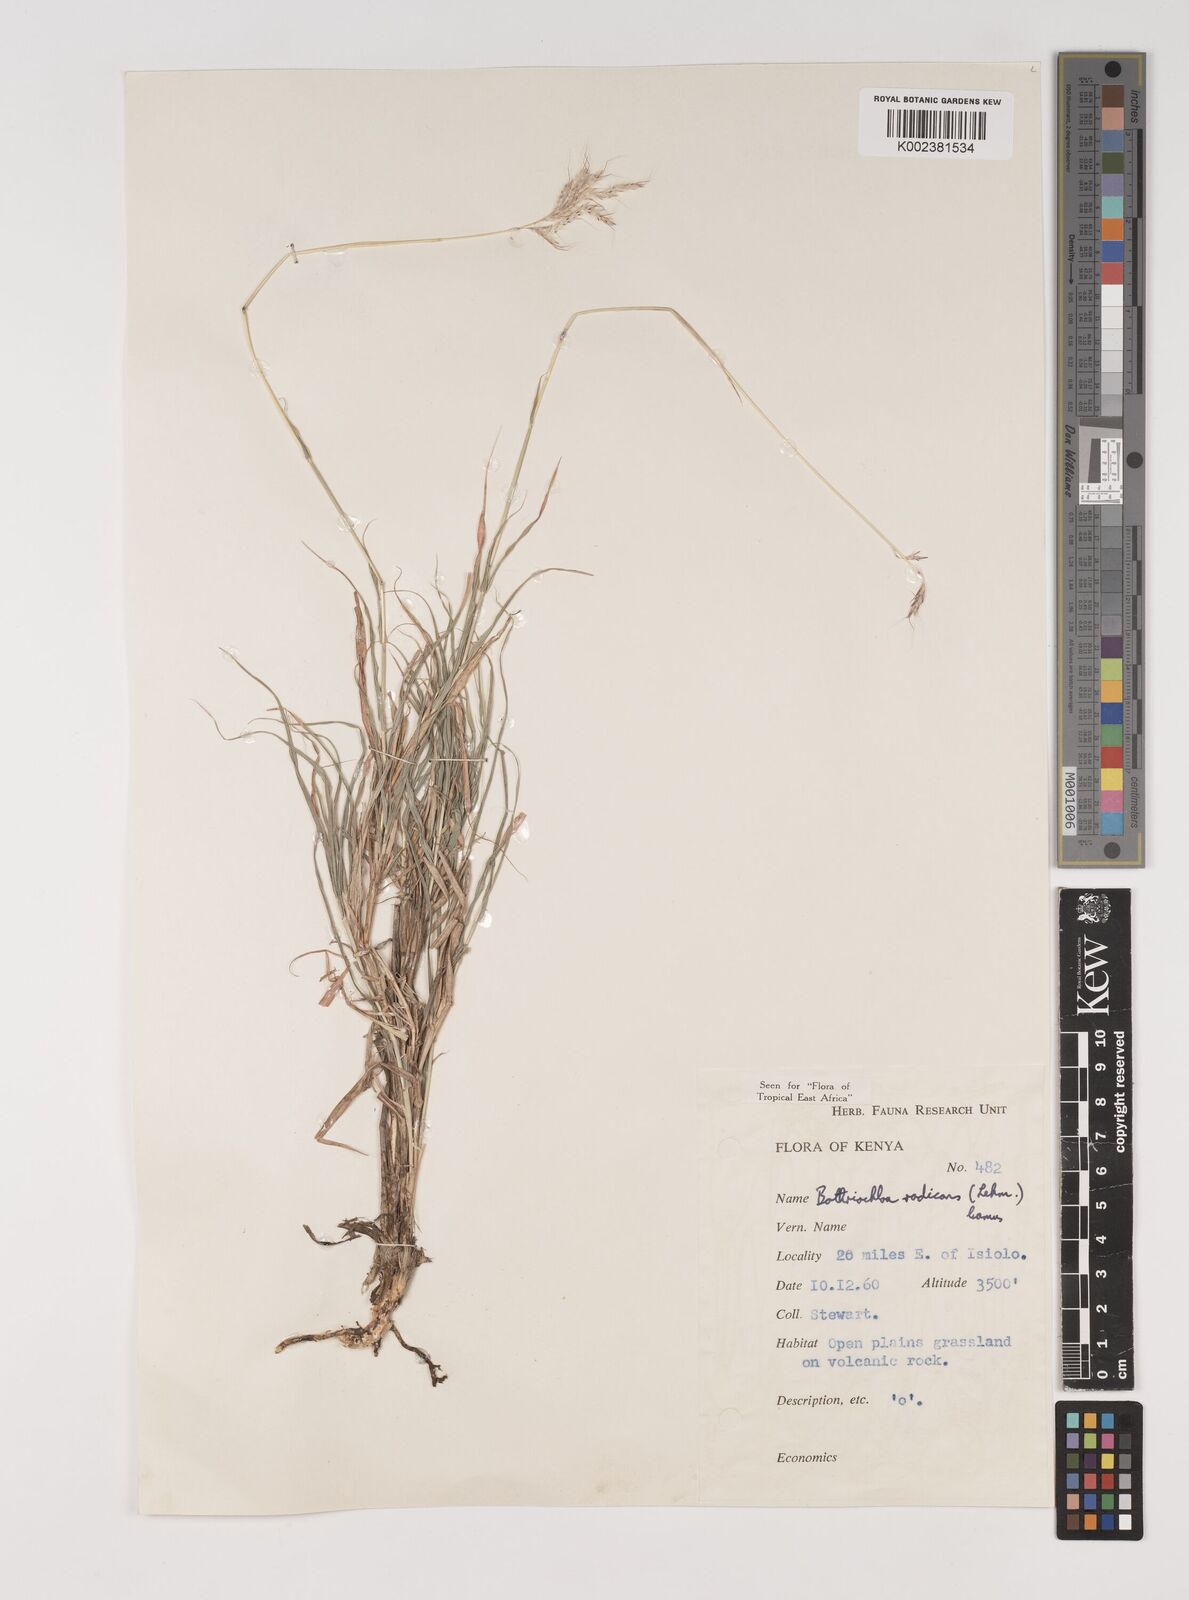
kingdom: Plantae
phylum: Tracheophyta
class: Liliopsida
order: Poales
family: Poaceae
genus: Bothriochloa
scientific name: Bothriochloa radicans
